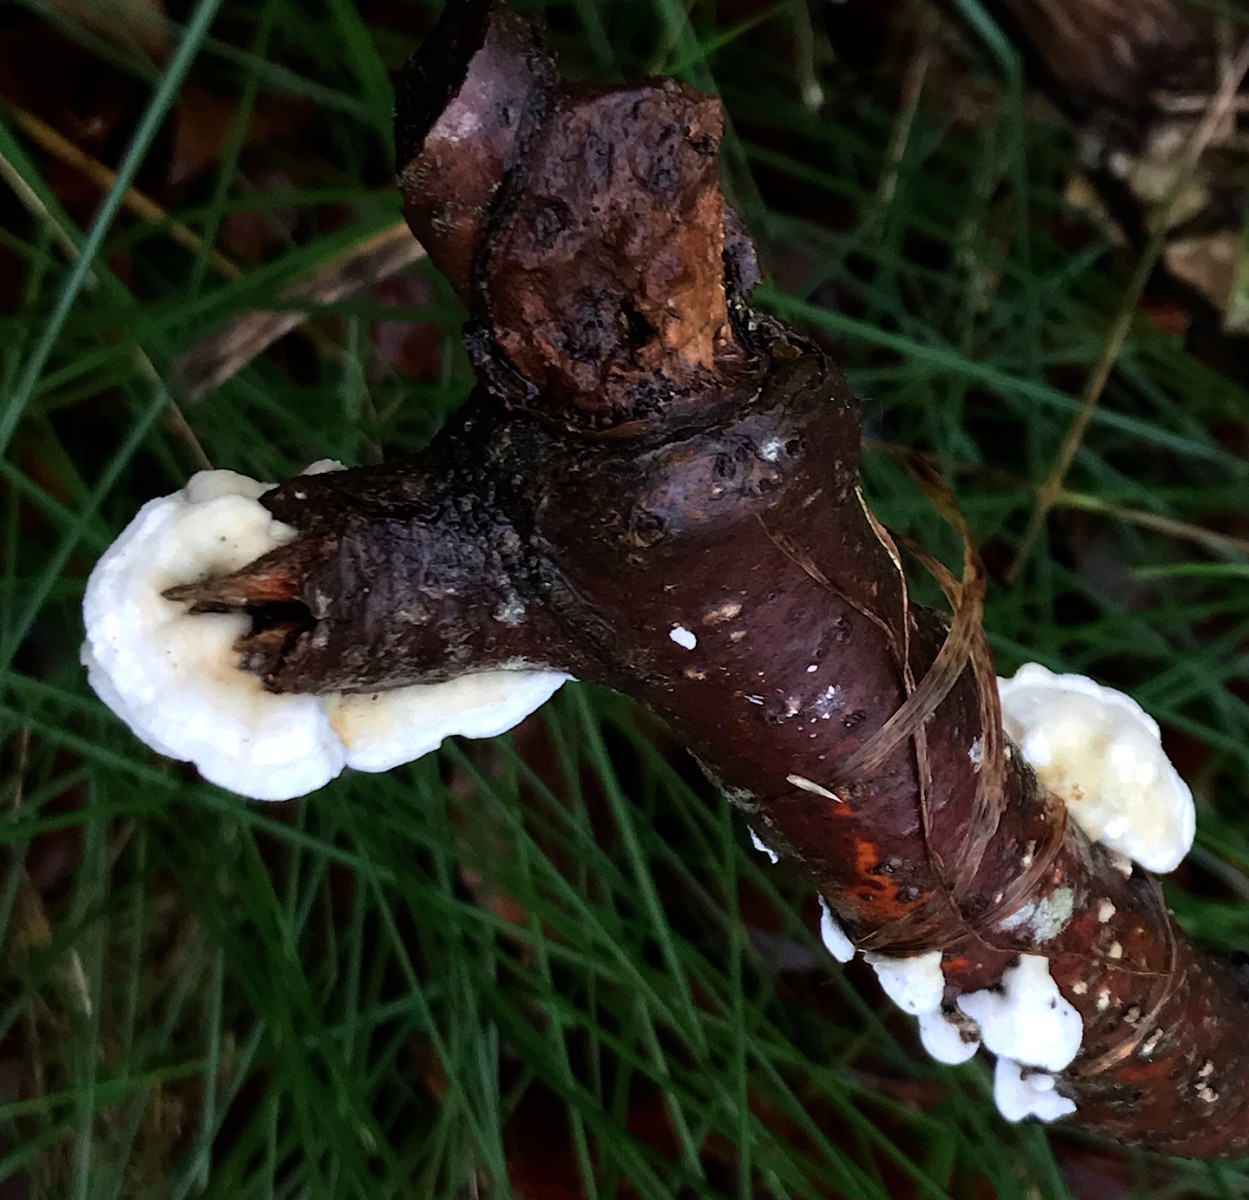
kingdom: Fungi
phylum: Basidiomycota
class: Agaricomycetes
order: Polyporales
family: Irpicaceae
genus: Byssomerulius
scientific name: Byssomerulius corium
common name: læder-åresvamp
